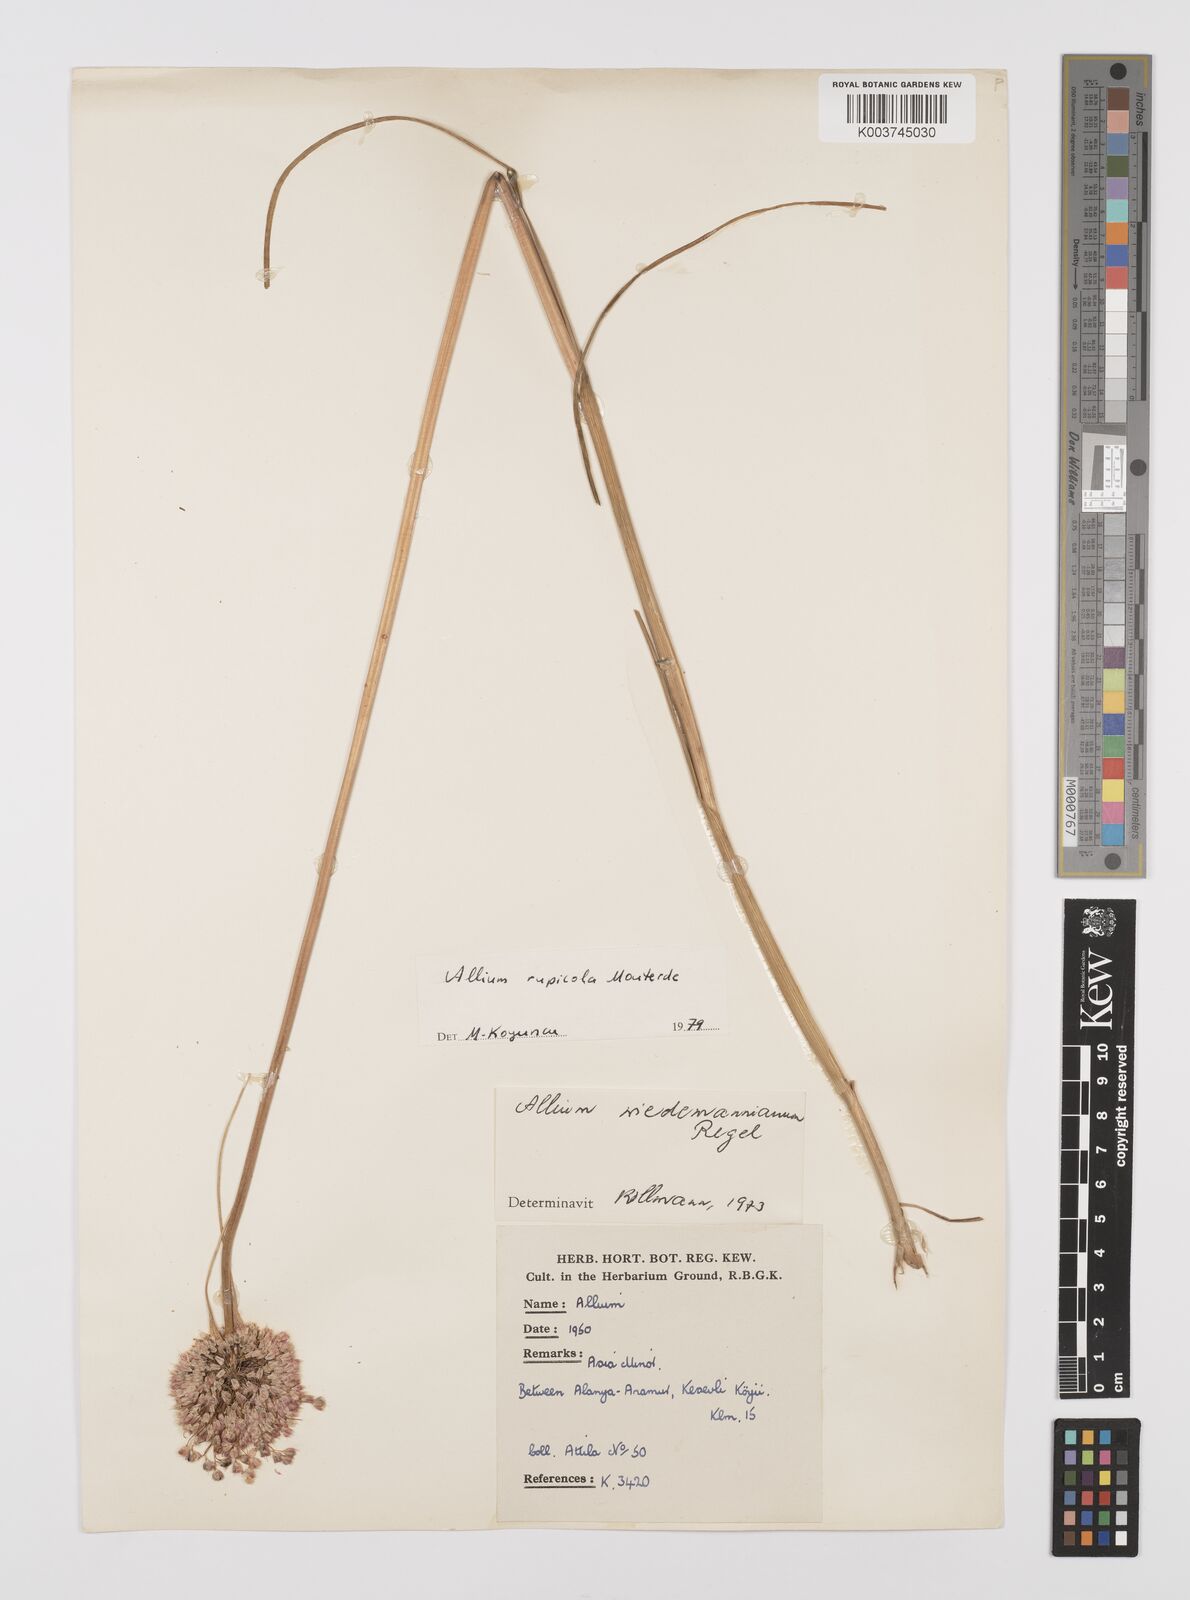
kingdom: Plantae
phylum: Tracheophyta
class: Liliopsida
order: Asparagales
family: Amaryllidaceae
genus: Allium
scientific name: Allium rupicola
